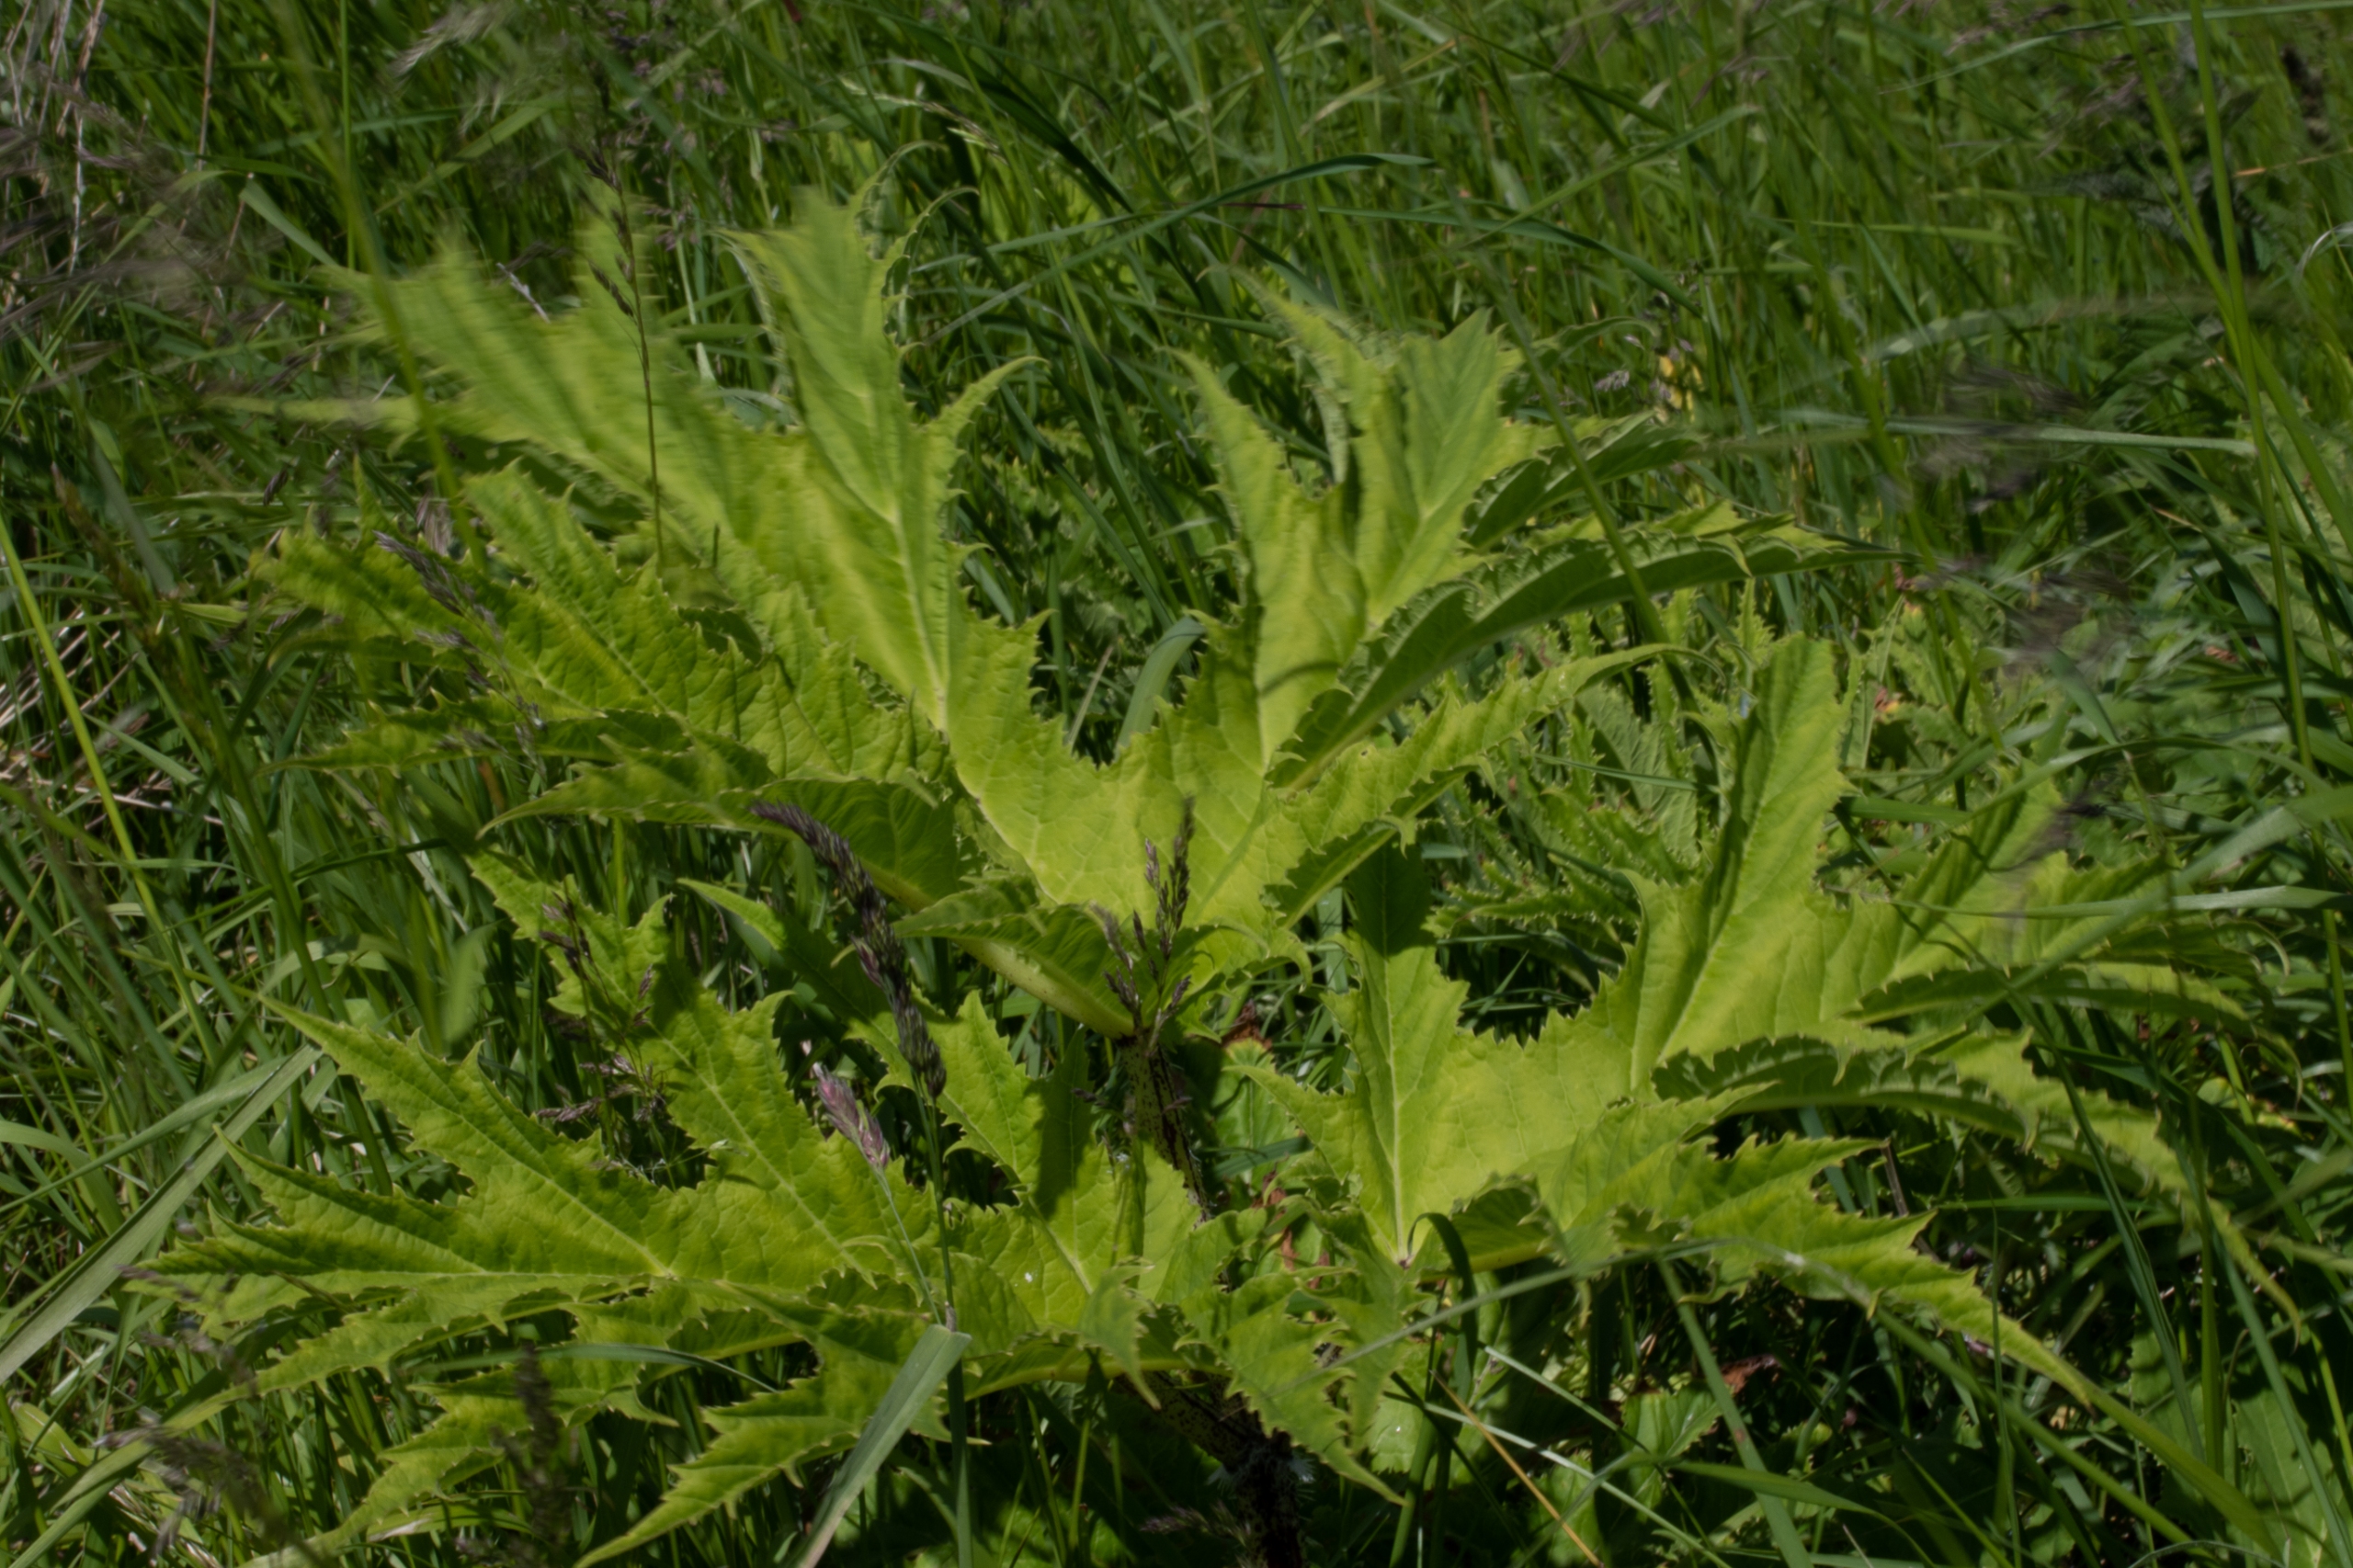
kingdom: Plantae
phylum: Tracheophyta
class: Magnoliopsida
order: Apiales
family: Apiaceae
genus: Heracleum
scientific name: Heracleum mantegazzianum
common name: Kæmpe-bjørneklo
